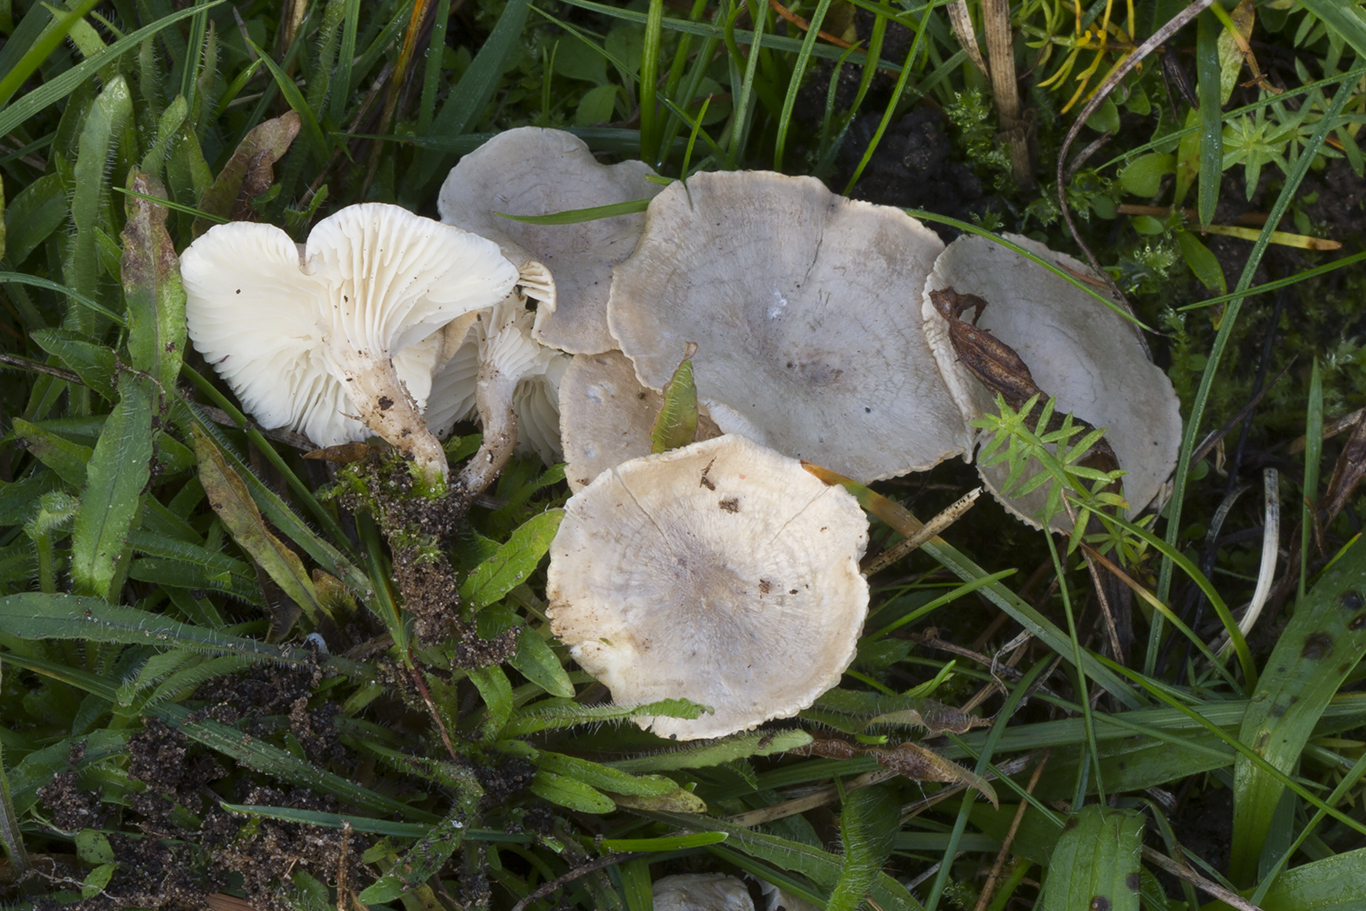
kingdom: Fungi
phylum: Basidiomycota
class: Agaricomycetes
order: Agaricales
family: Hygrophoraceae
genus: Spodocybe
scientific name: Spodocybe collina
